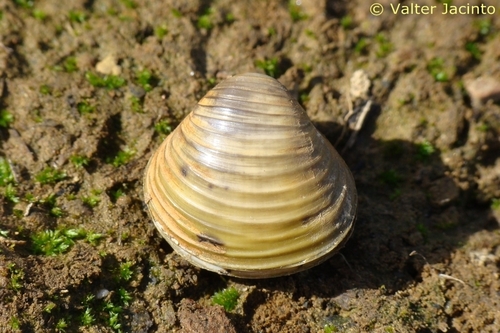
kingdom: Animalia
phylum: Mollusca
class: Bivalvia
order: Venerida
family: Cyrenidae
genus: Corbicula
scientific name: Corbicula fluminea
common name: Asian clam
